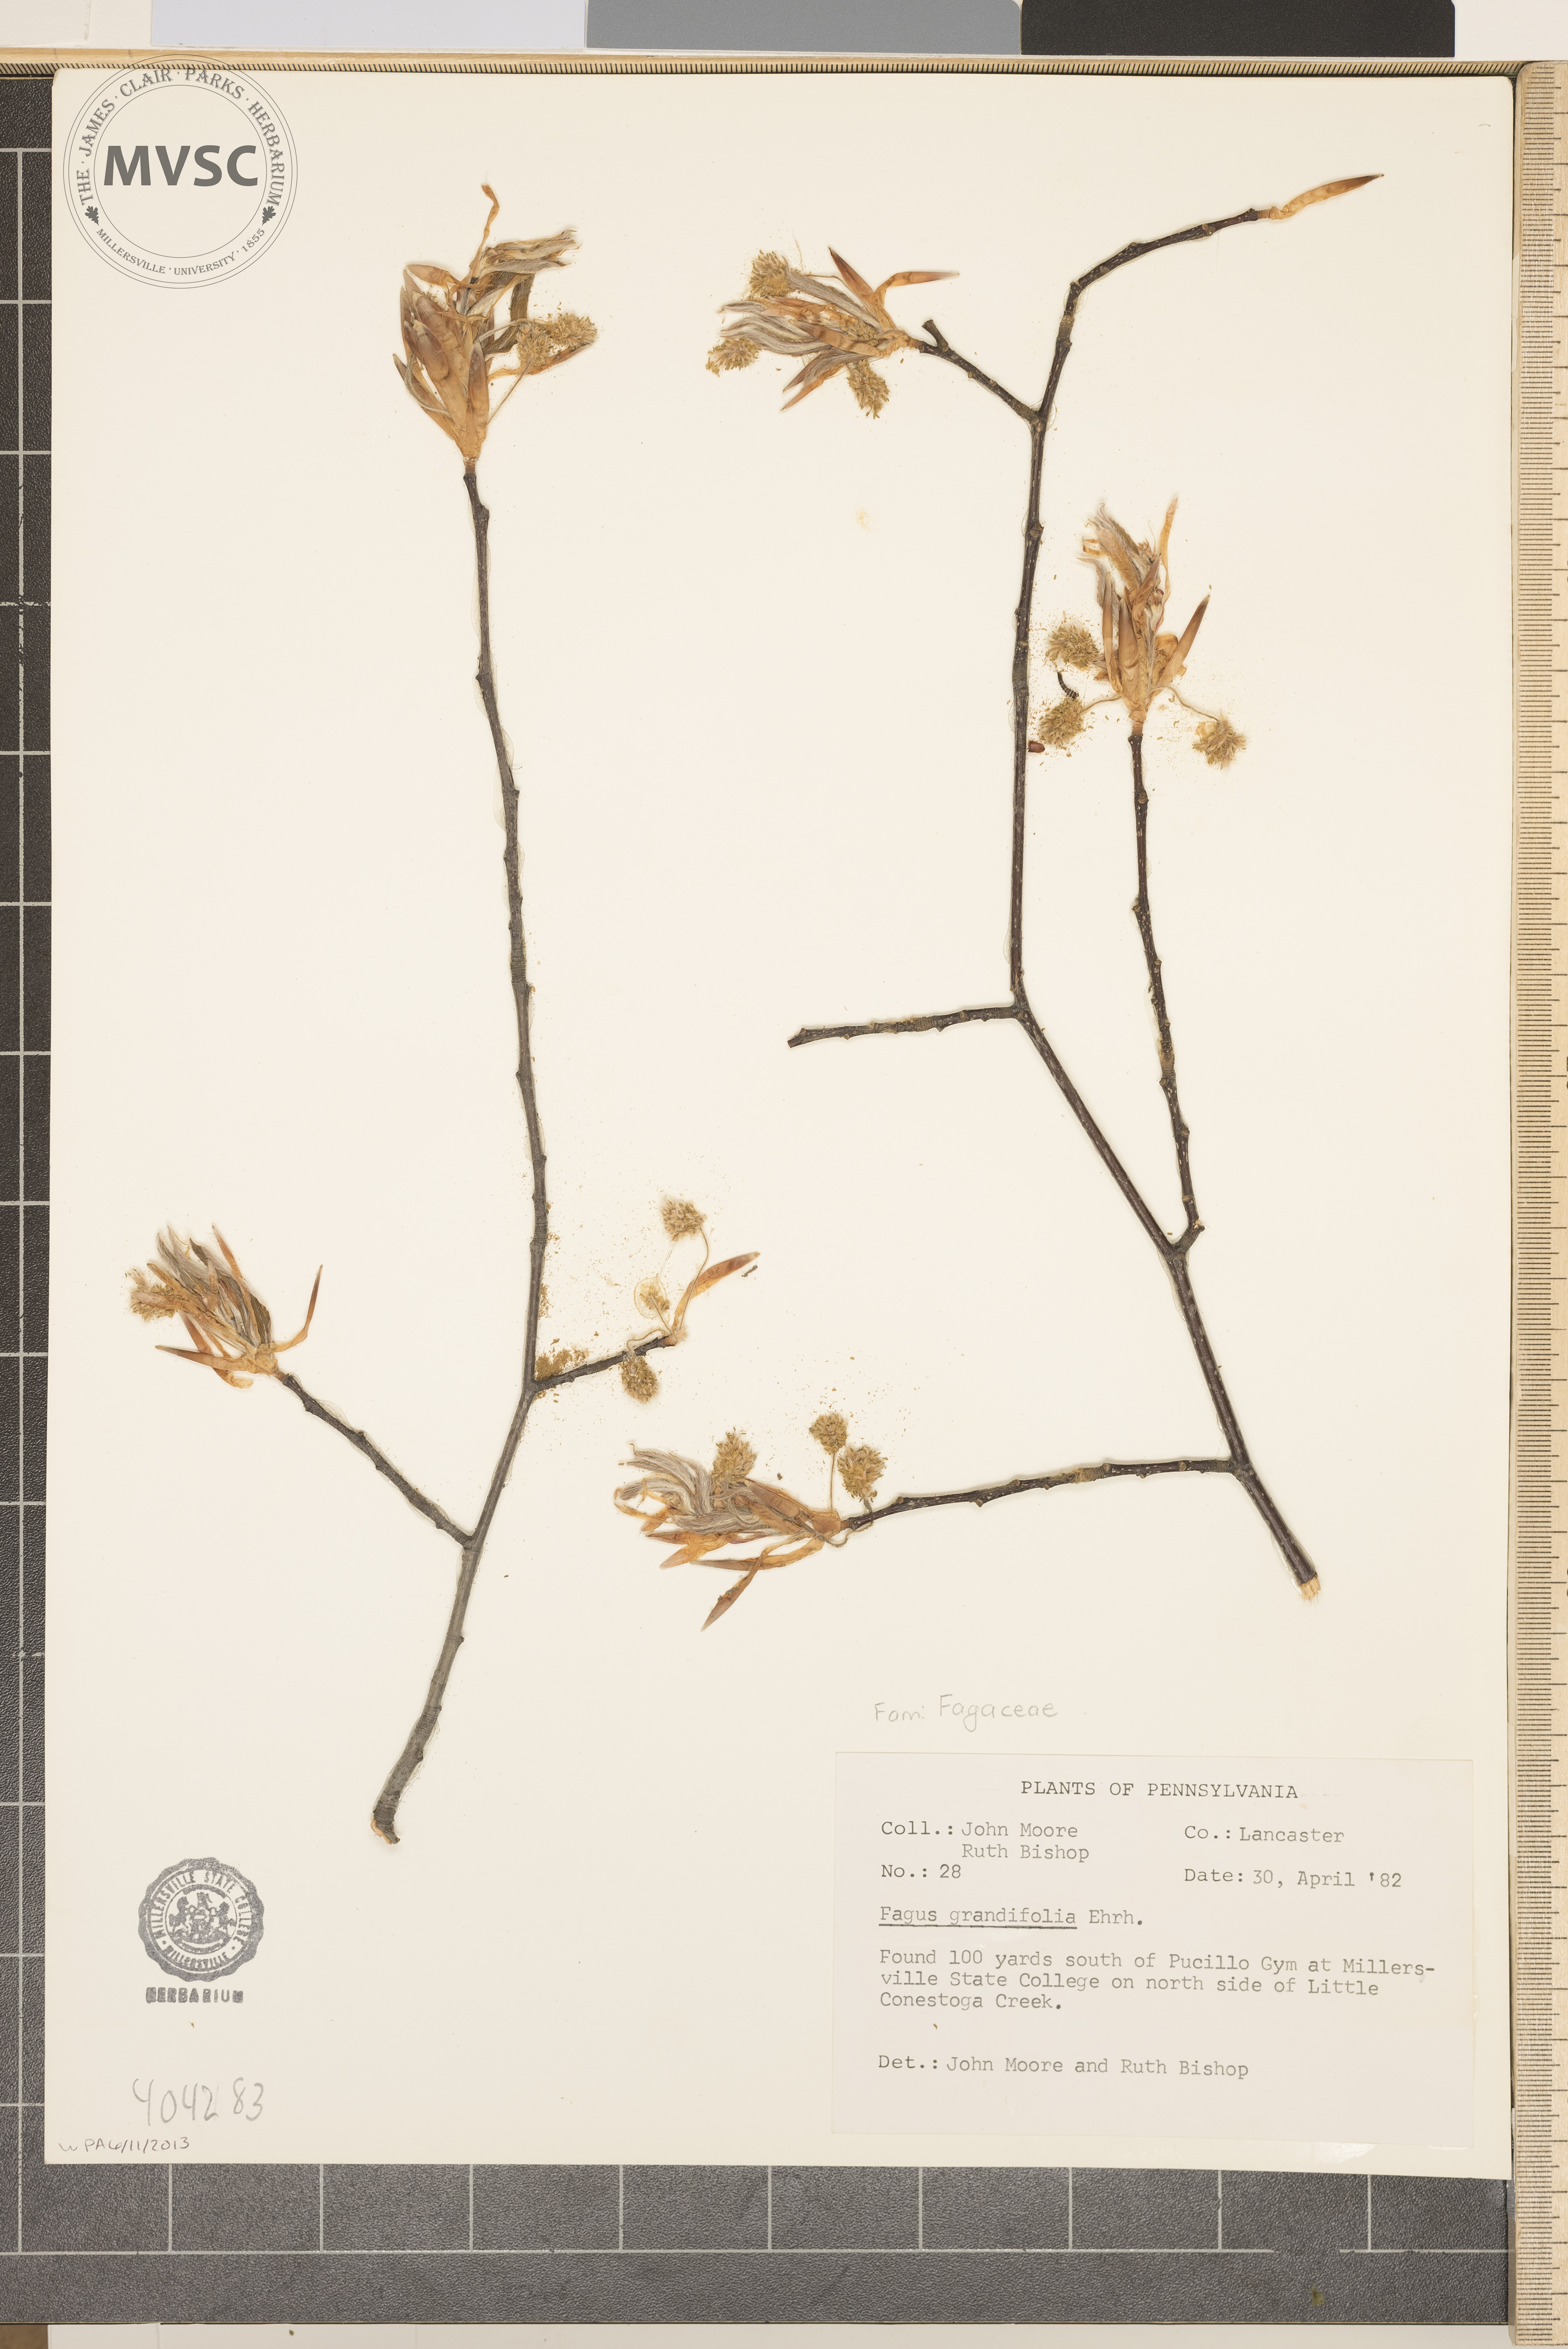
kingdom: Plantae
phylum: Tracheophyta
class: Magnoliopsida
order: Fagales
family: Fagaceae
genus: Fagus
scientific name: Fagus grandifolia
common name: American beech
